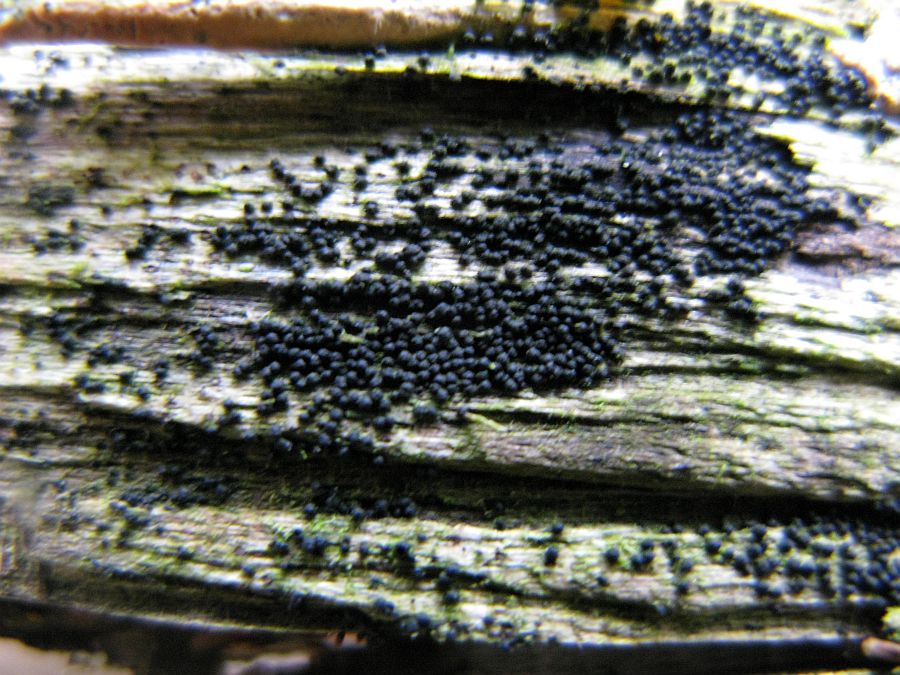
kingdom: Fungi
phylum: Ascomycota
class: Dothideomycetes
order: Pleosporales
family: Melanommataceae
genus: Melanomma
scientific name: Melanomma pulvis-pyrius
